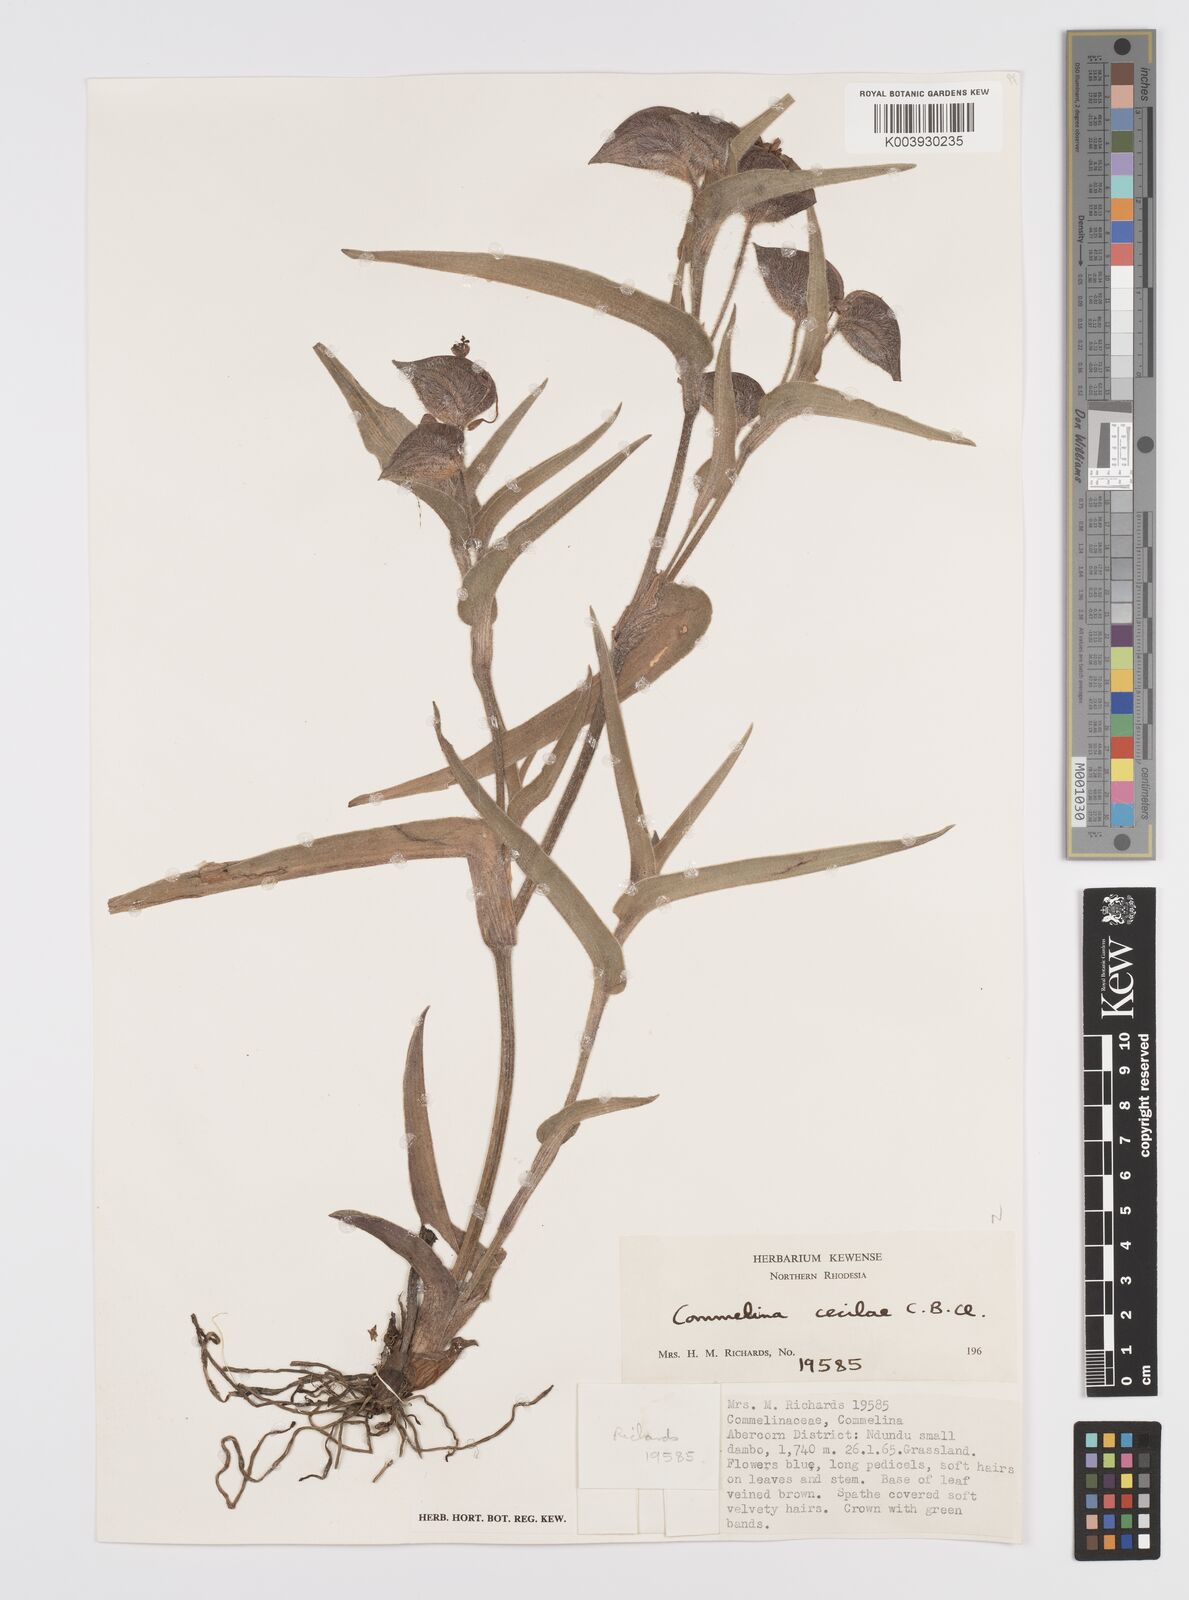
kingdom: Plantae
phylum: Tracheophyta
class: Liliopsida
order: Commelinales
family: Commelinaceae
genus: Commelina
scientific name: Commelina schweinfurthii
